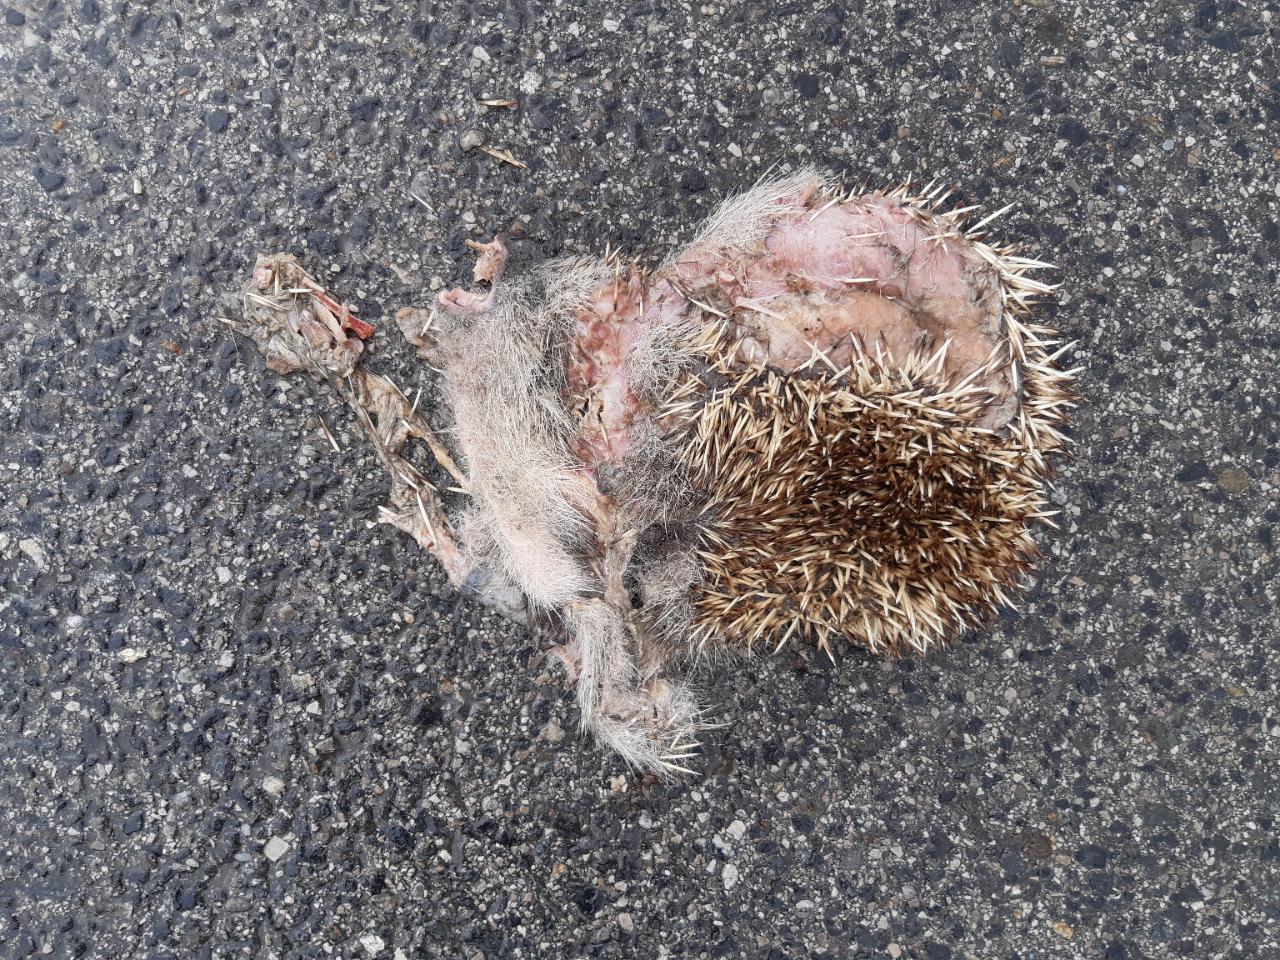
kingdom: Animalia
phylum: Chordata
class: Mammalia
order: Erinaceomorpha
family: Erinaceidae
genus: Erinaceus
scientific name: Erinaceus
